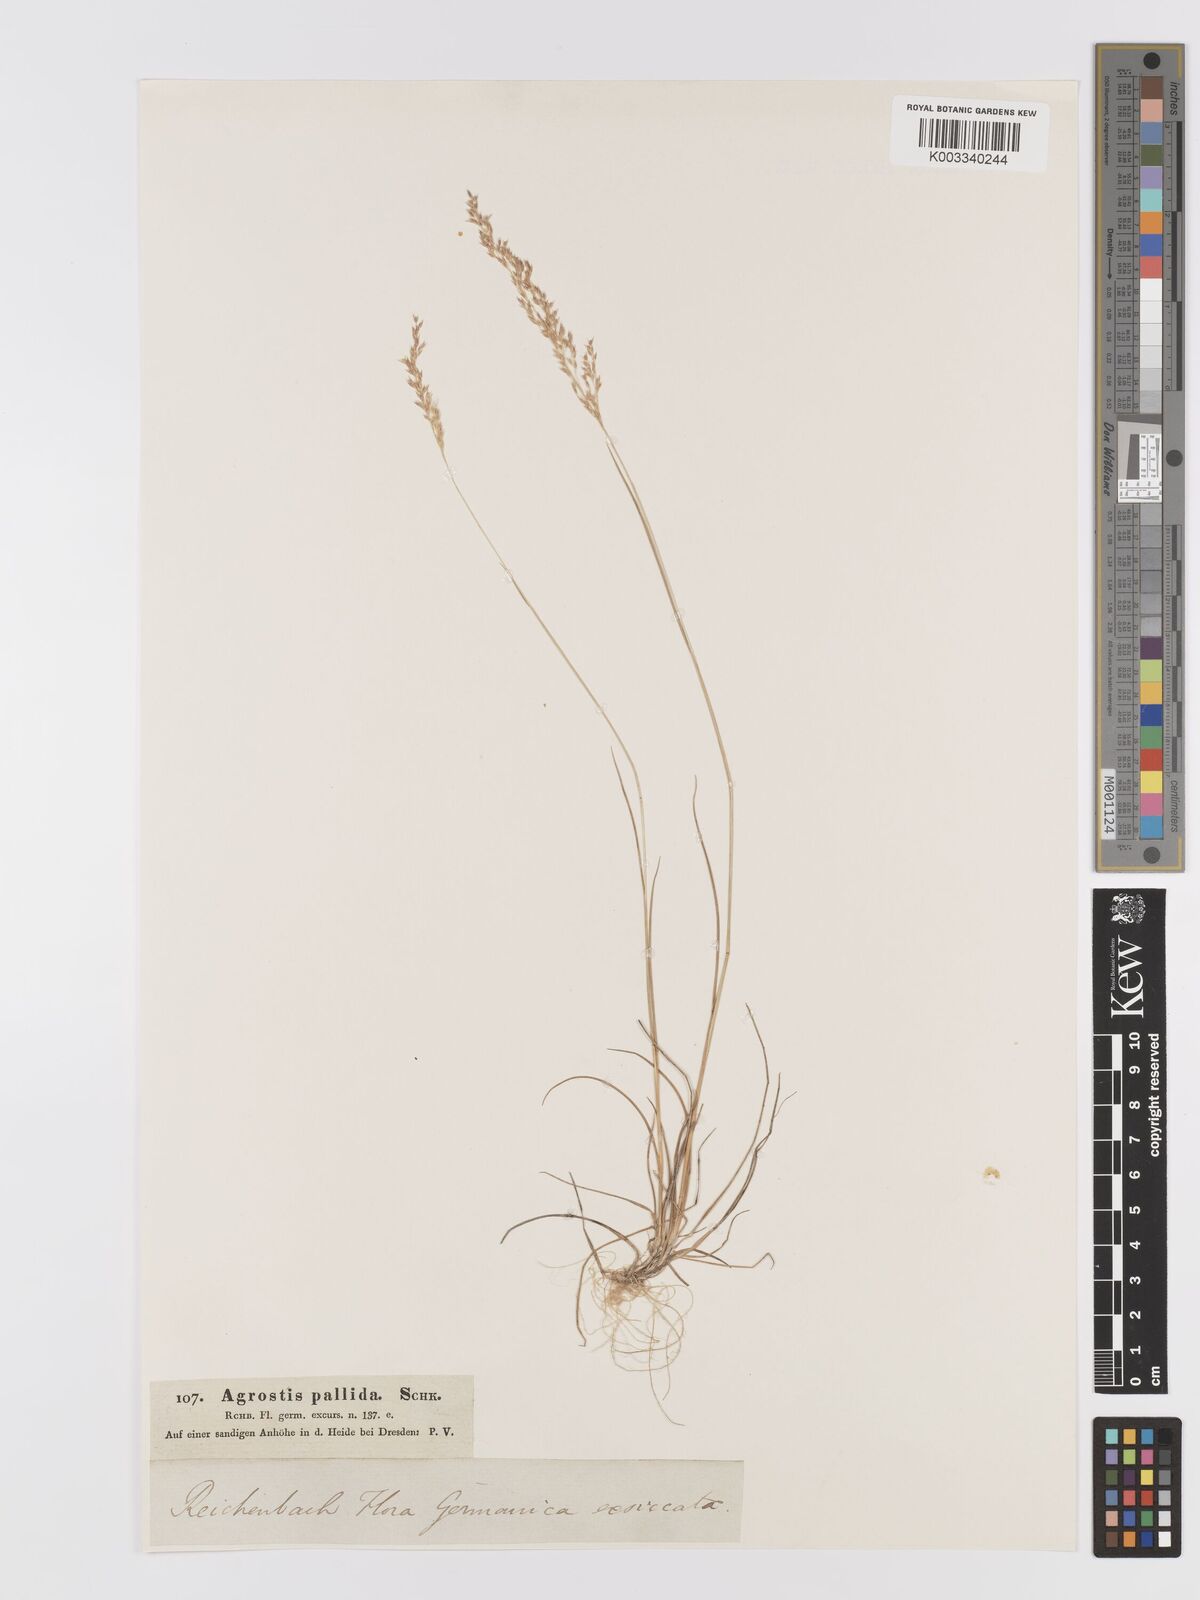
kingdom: Plantae
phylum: Tracheophyta
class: Liliopsida
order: Poales
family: Poaceae
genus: Agrostis
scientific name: Agrostis pourretii
